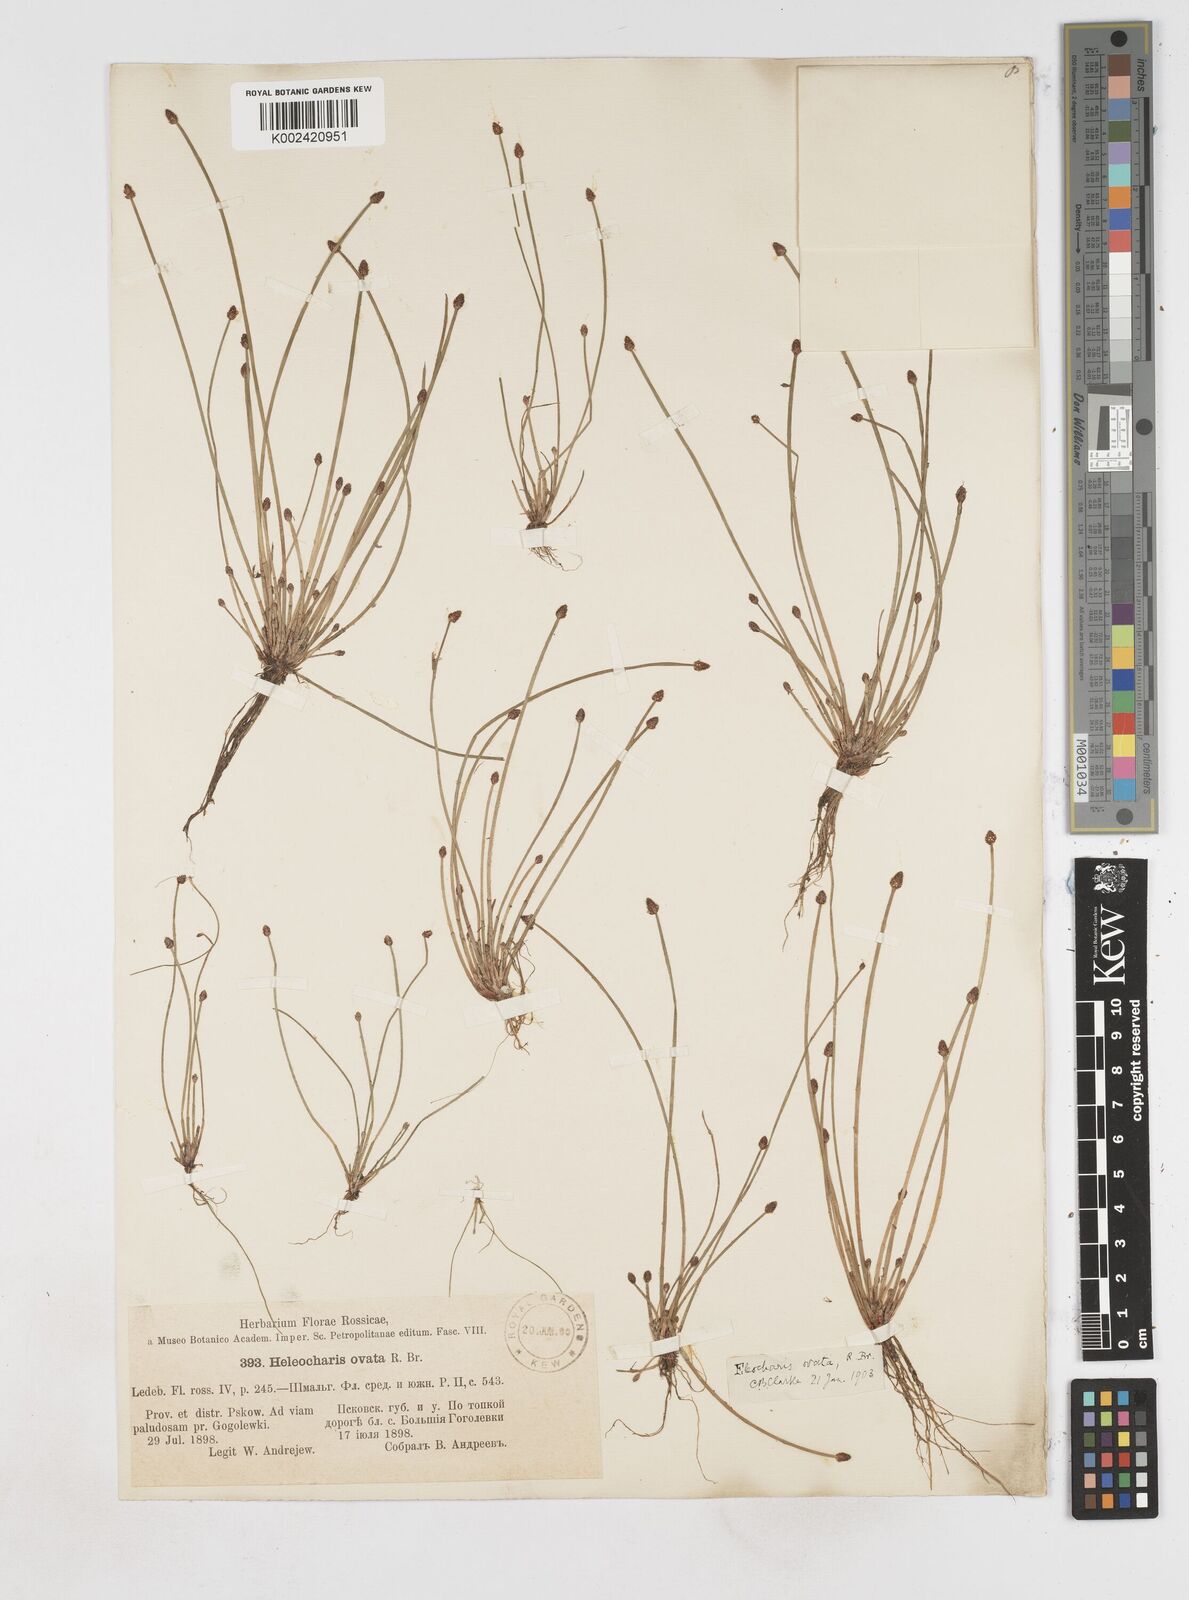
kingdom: Plantae
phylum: Tracheophyta
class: Liliopsida
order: Poales
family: Cyperaceae
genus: Eleocharis
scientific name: Eleocharis ovata
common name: Oval spike-rush
